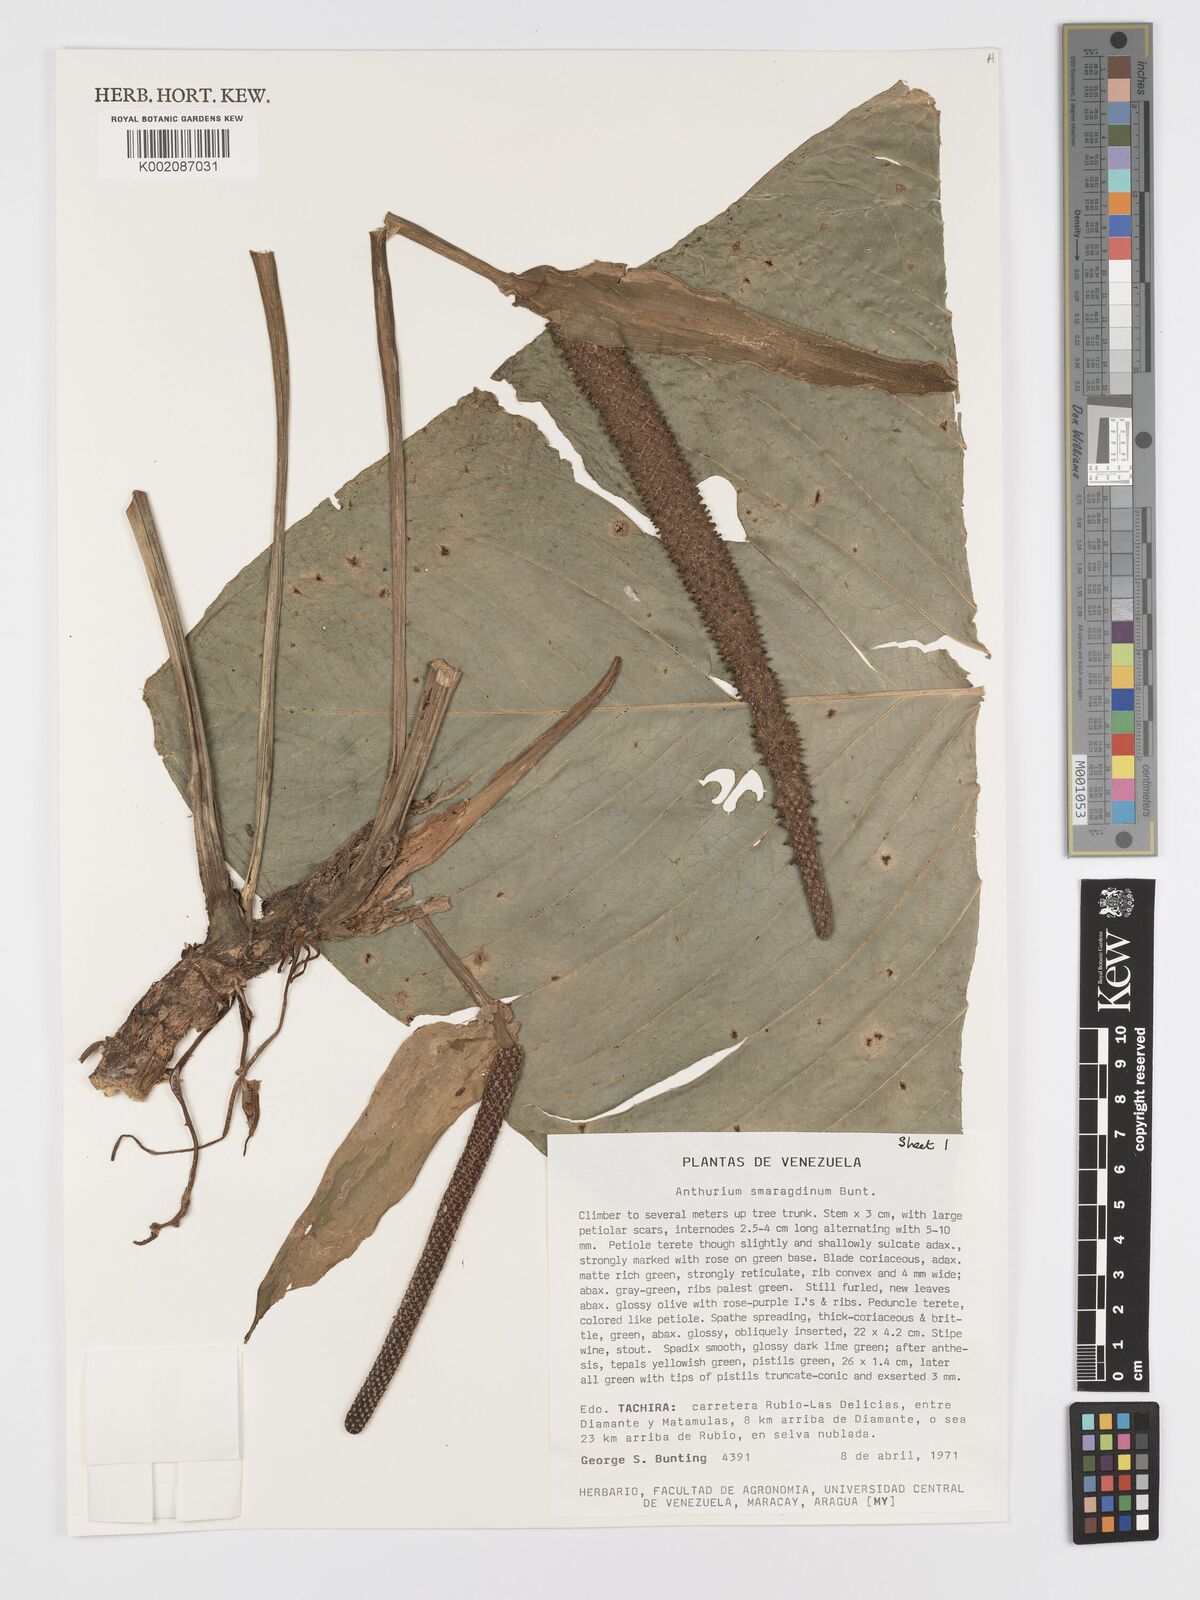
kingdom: Plantae
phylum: Tracheophyta
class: Liliopsida
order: Alismatales
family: Araceae
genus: Anthurium
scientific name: Anthurium smaragdinum
